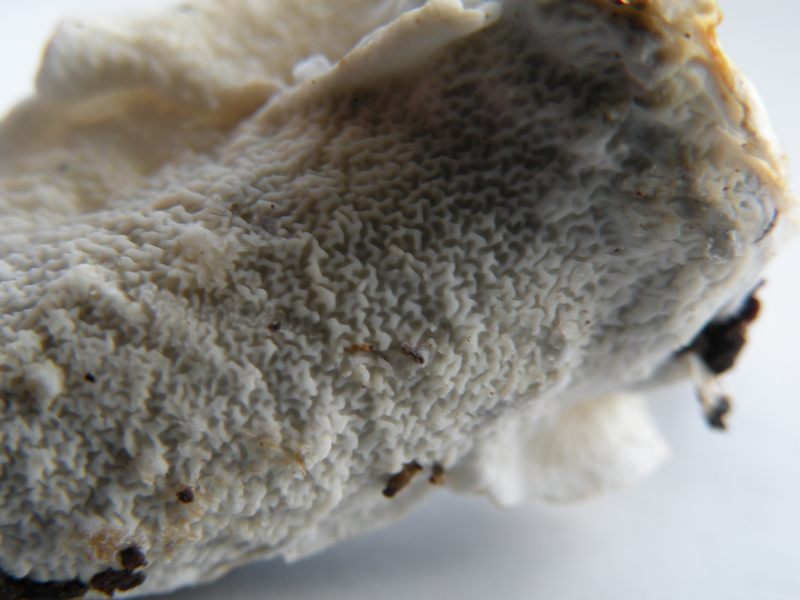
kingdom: Fungi
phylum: Basidiomycota
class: Agaricomycetes
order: Polyporales
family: Irpicaceae
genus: Byssomerulius
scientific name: Byssomerulius corium
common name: læder-åresvamp
